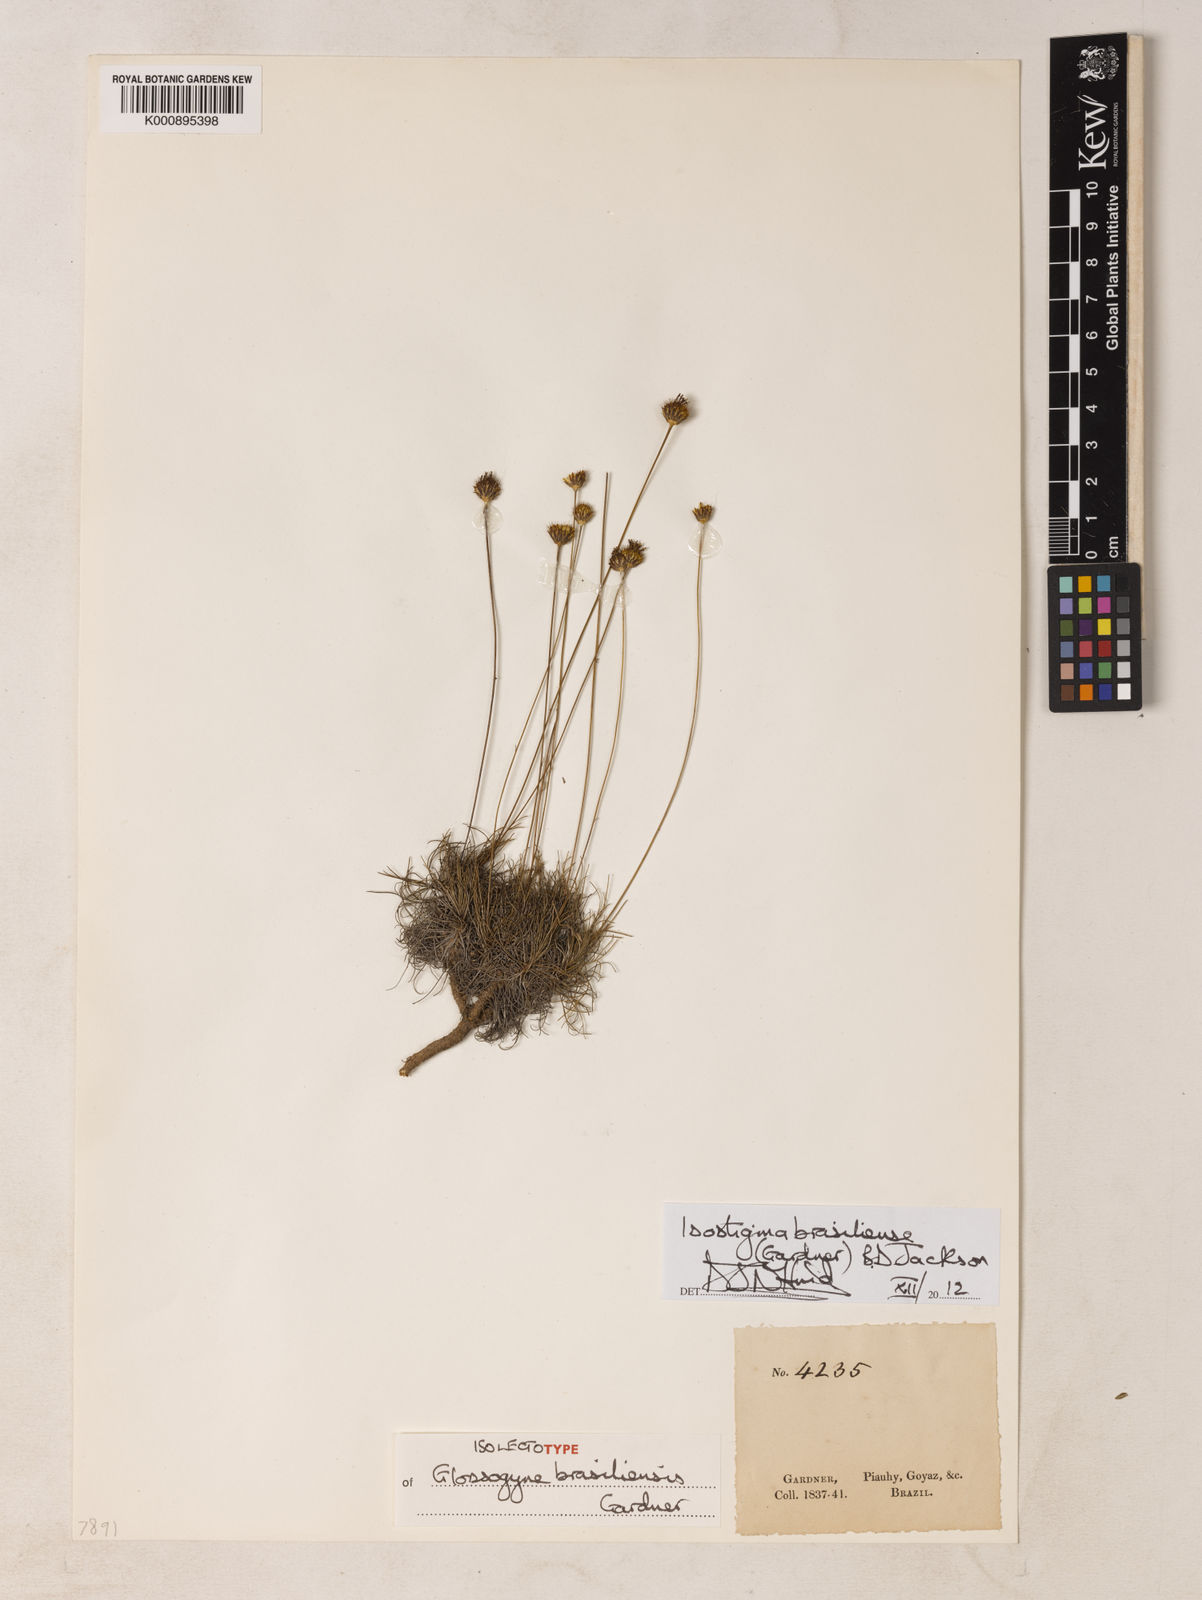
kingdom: Plantae
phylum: Tracheophyta
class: Magnoliopsida
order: Asterales
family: Asteraceae
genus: Isostigma
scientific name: Isostigma brasiliense
